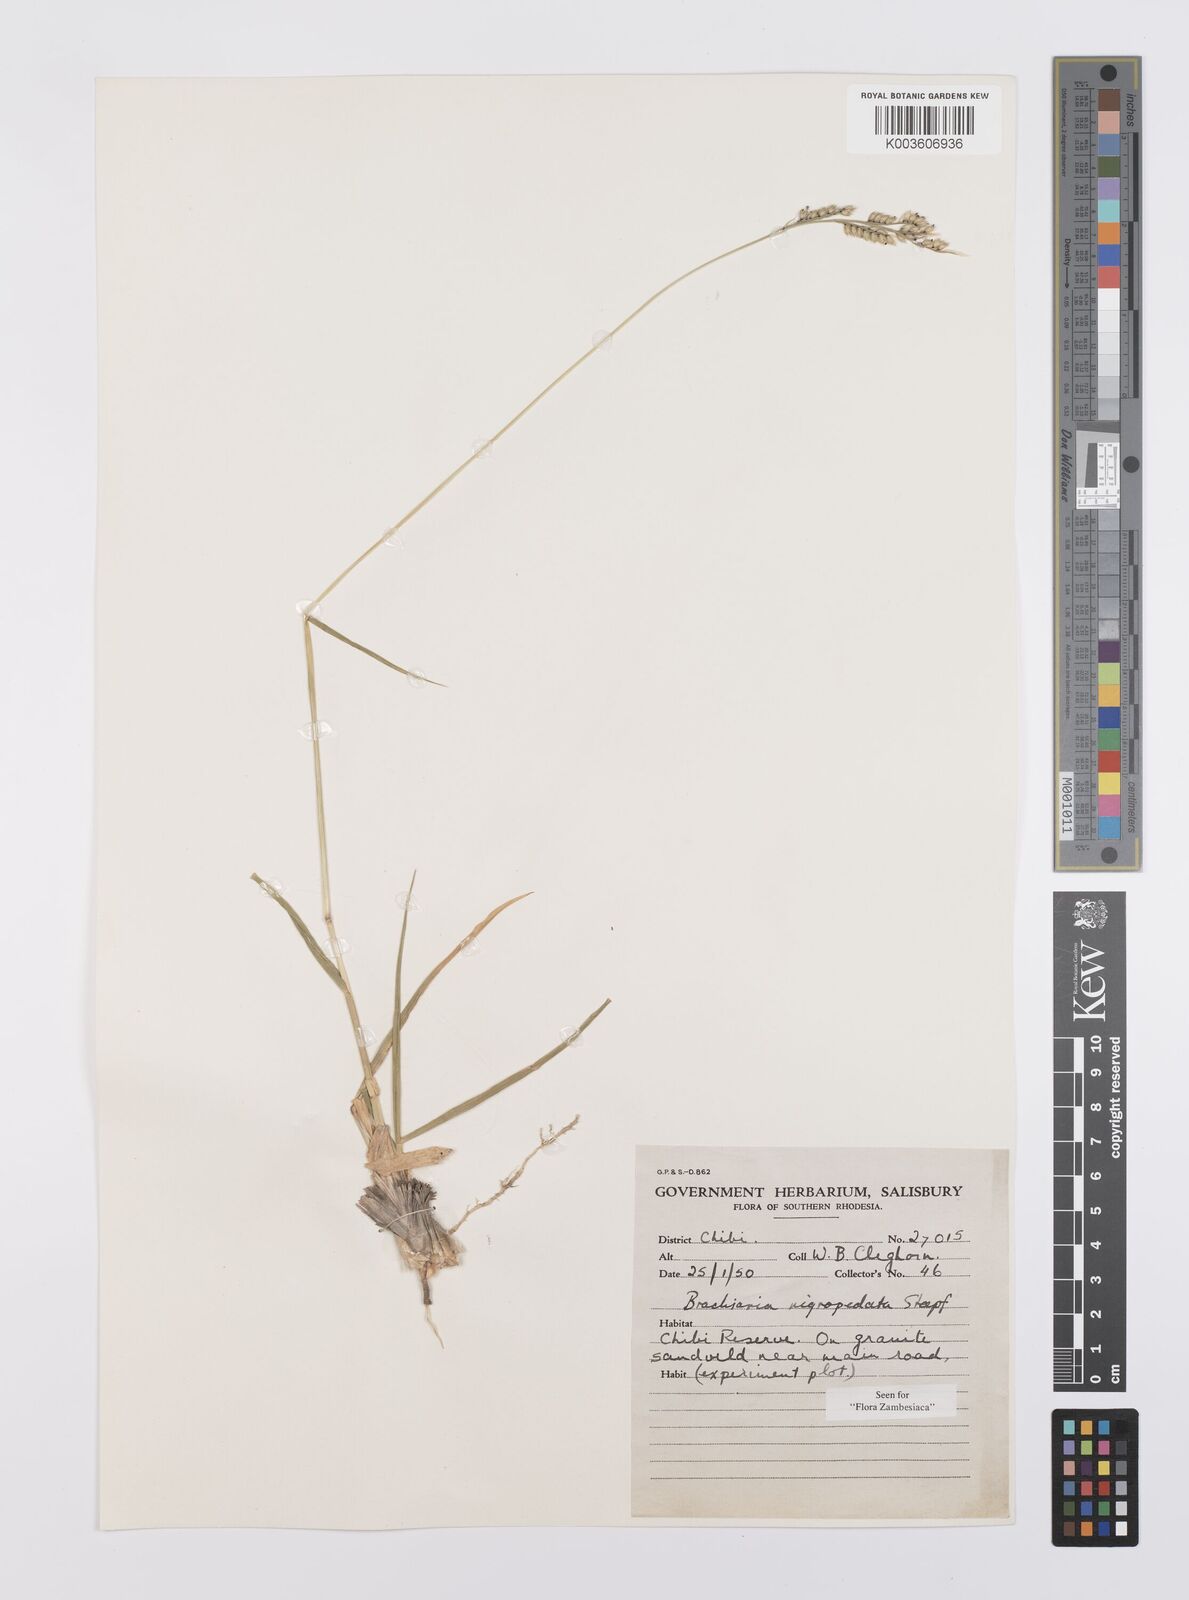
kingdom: Plantae
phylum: Tracheophyta
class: Liliopsida
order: Poales
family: Poaceae
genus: Urochloa
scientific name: Urochloa nigropedata
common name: Spotted signal grass
